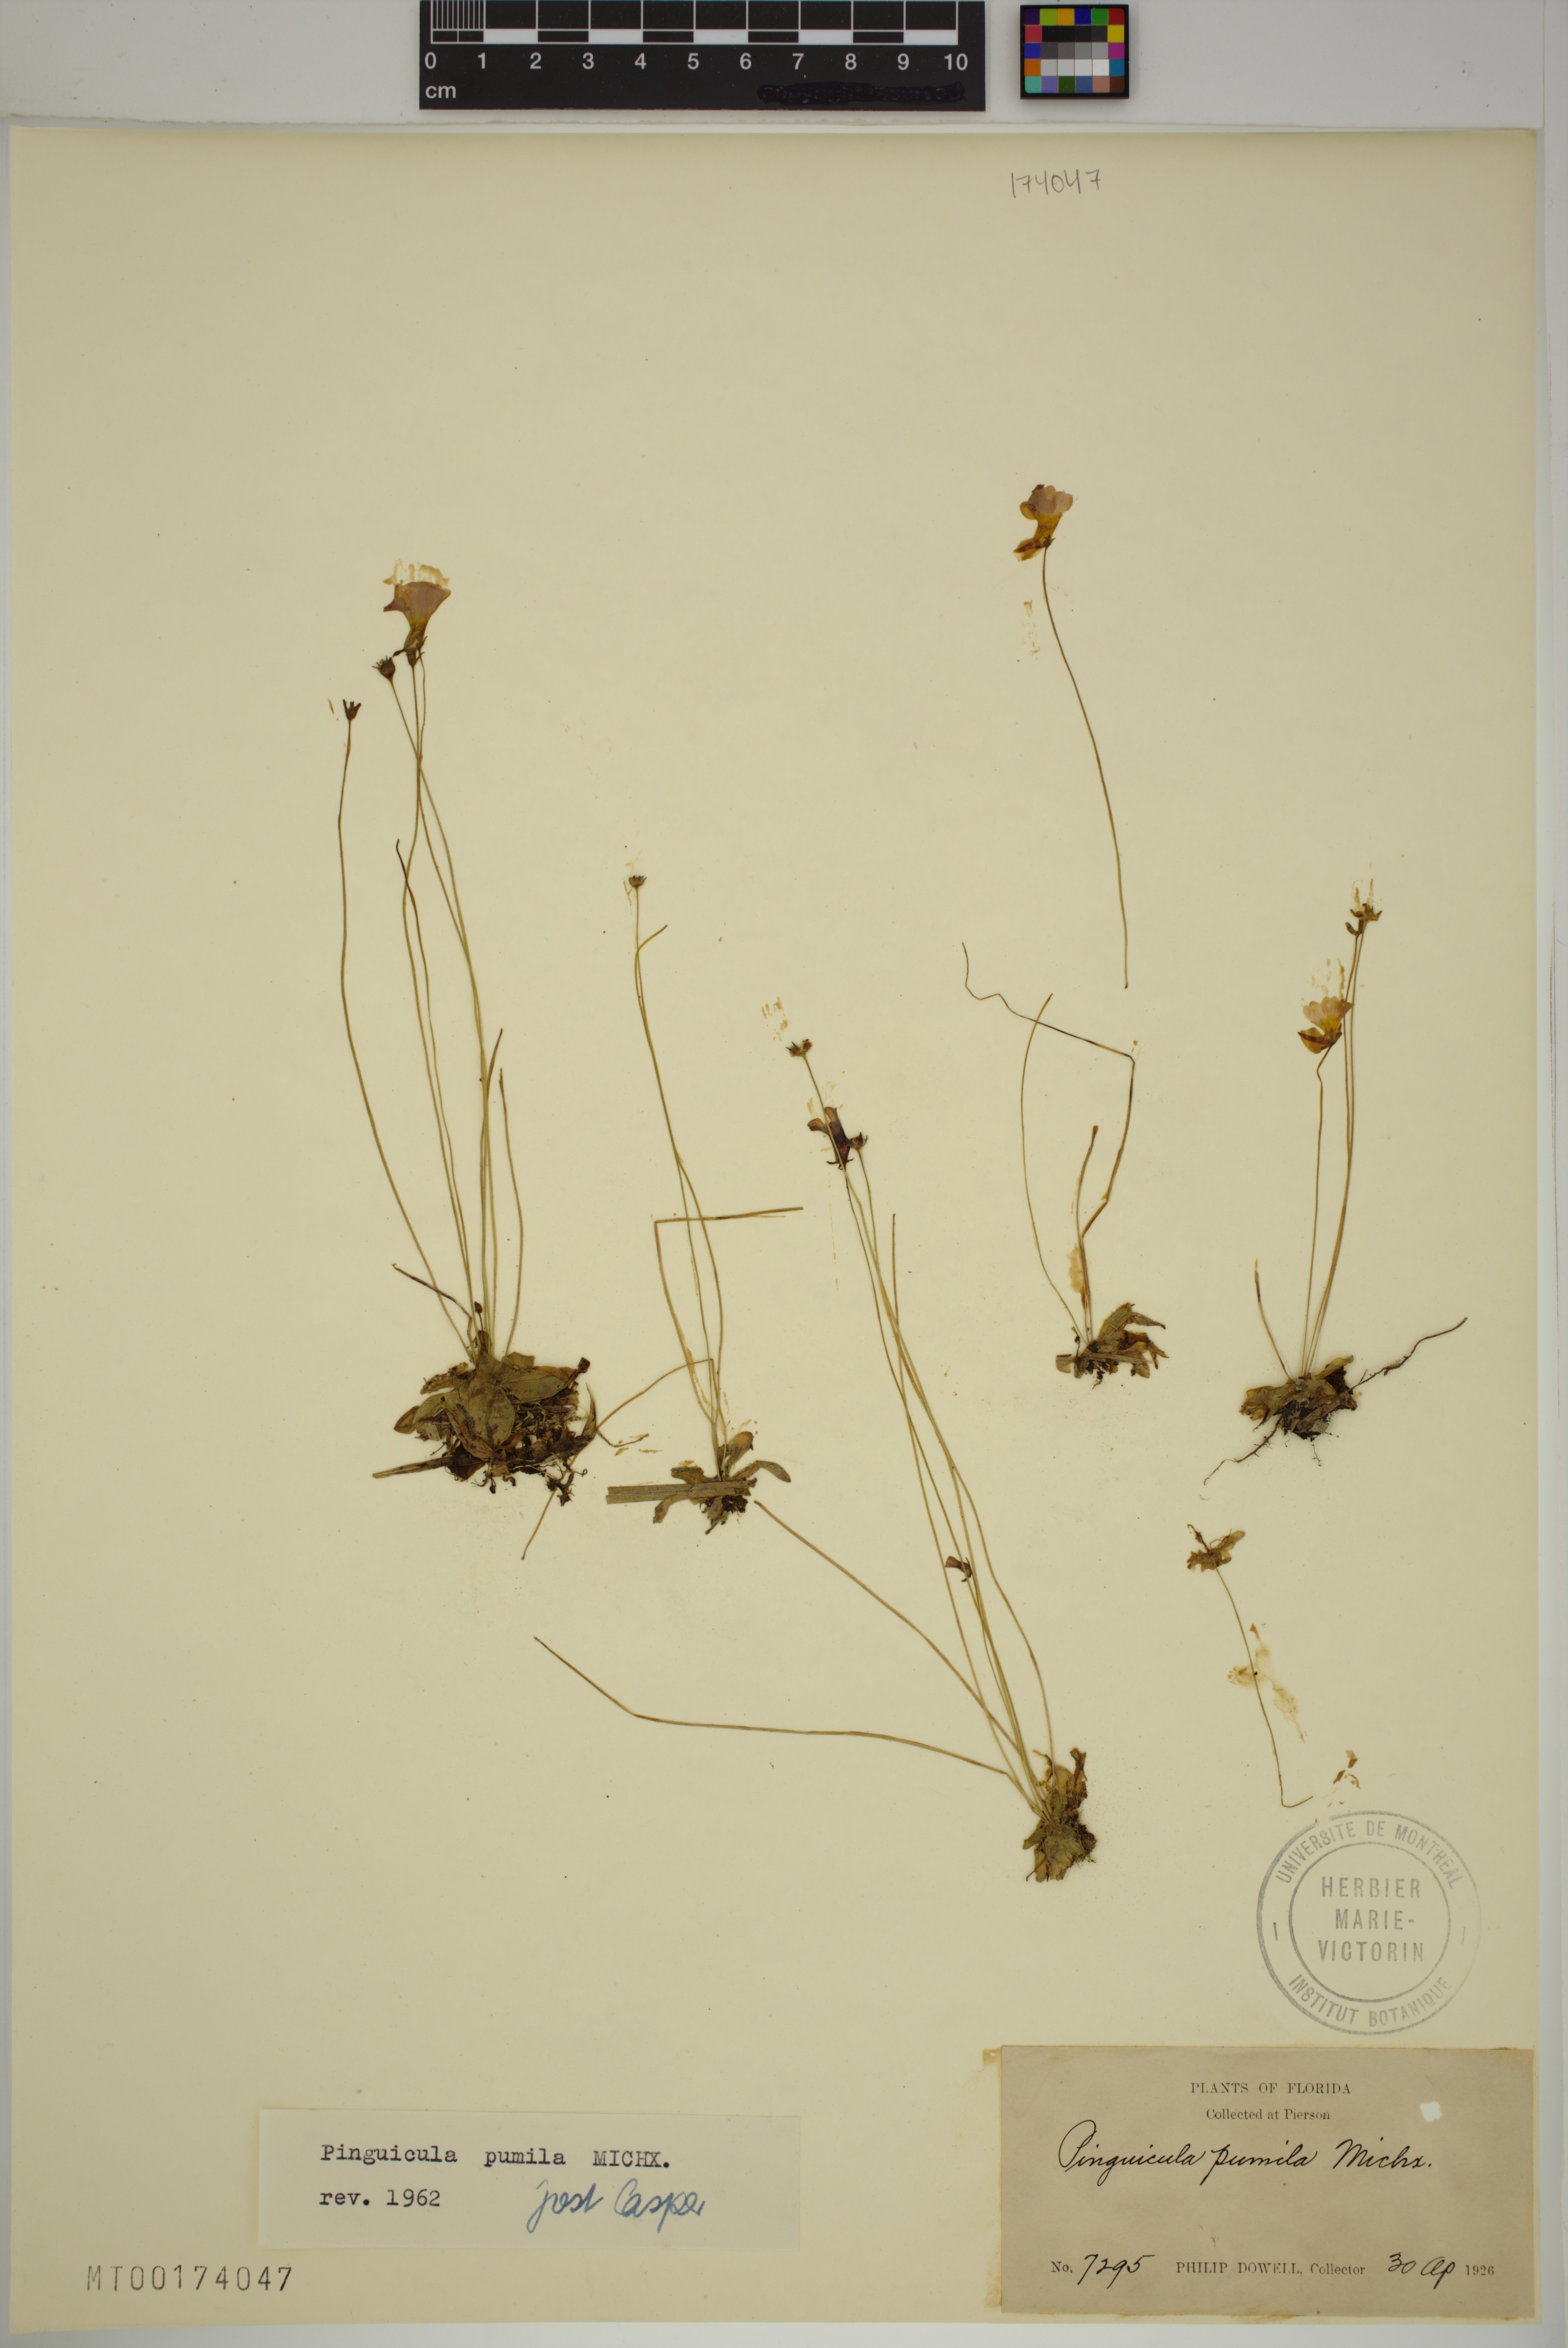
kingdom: Plantae
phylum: Tracheophyta
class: Magnoliopsida
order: Lamiales
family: Lentibulariaceae
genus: Pinguicula
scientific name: Pinguicula pumila
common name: Small butterwort
